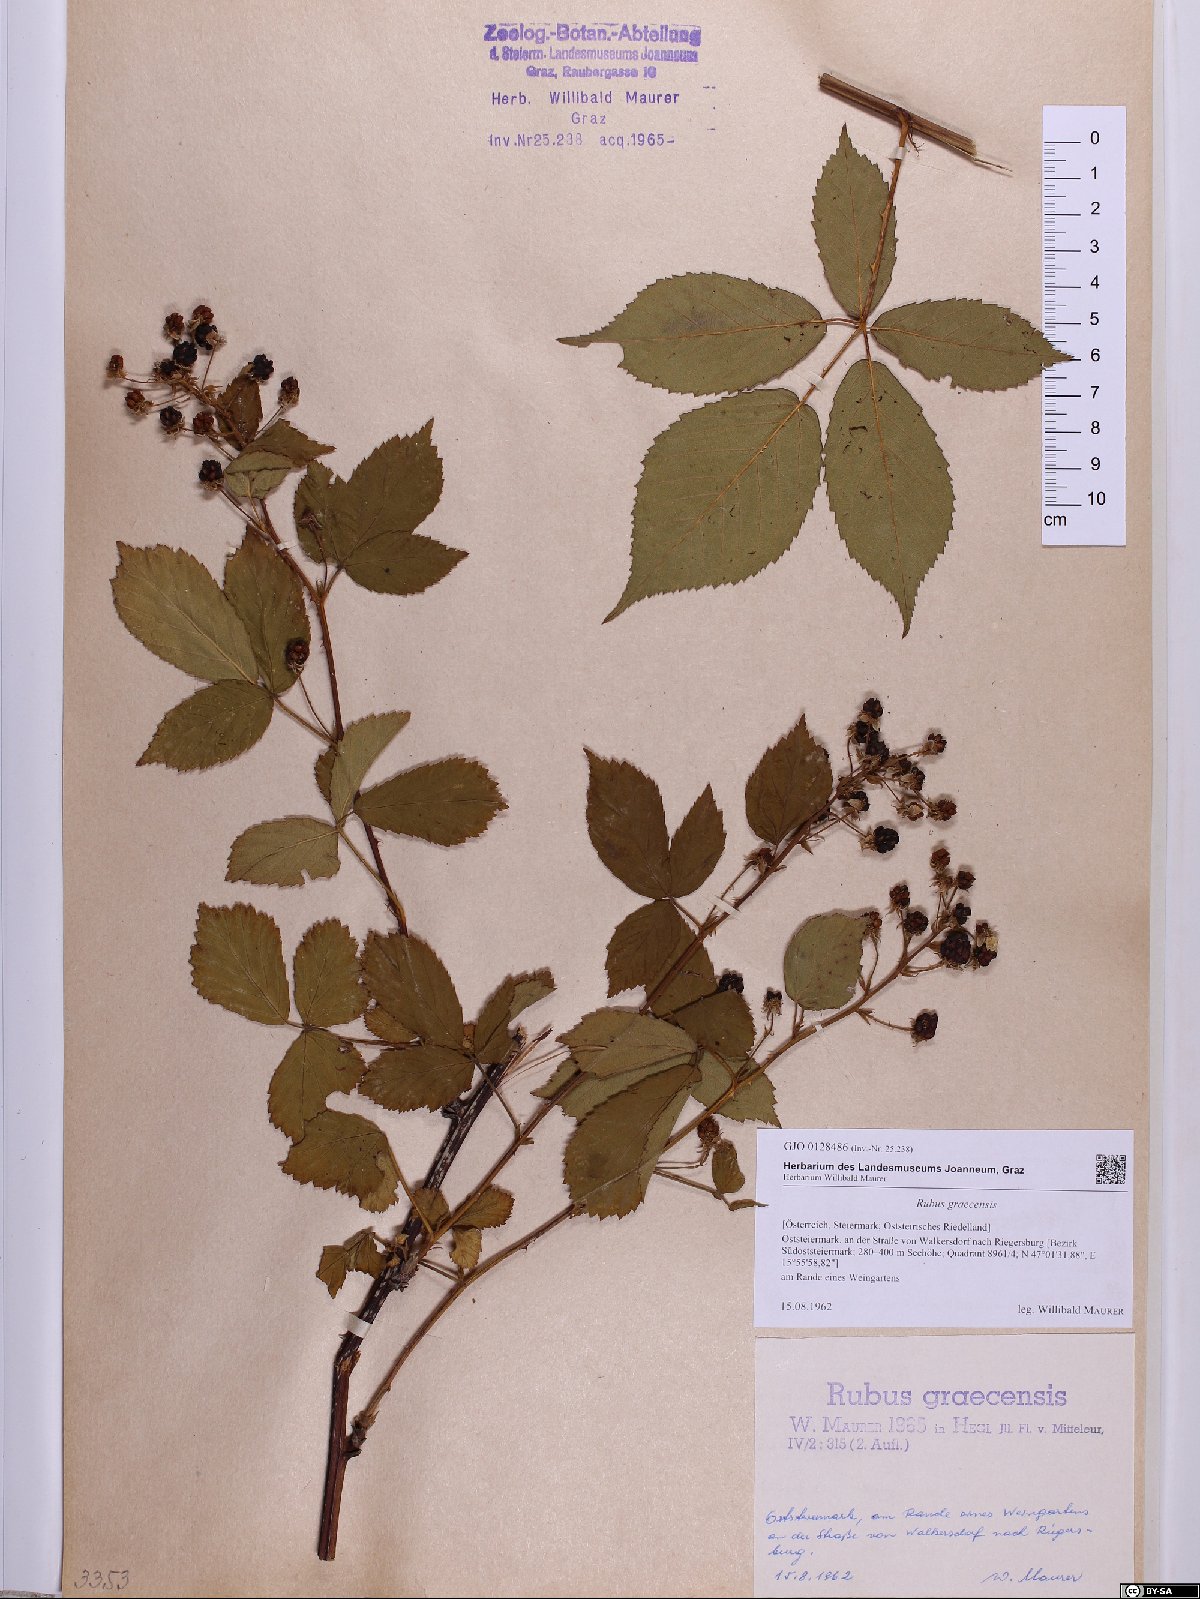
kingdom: Plantae
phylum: Tracheophyta
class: Magnoliopsida
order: Rosales
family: Rosaceae
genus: Rubus
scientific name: Rubus graecensis
